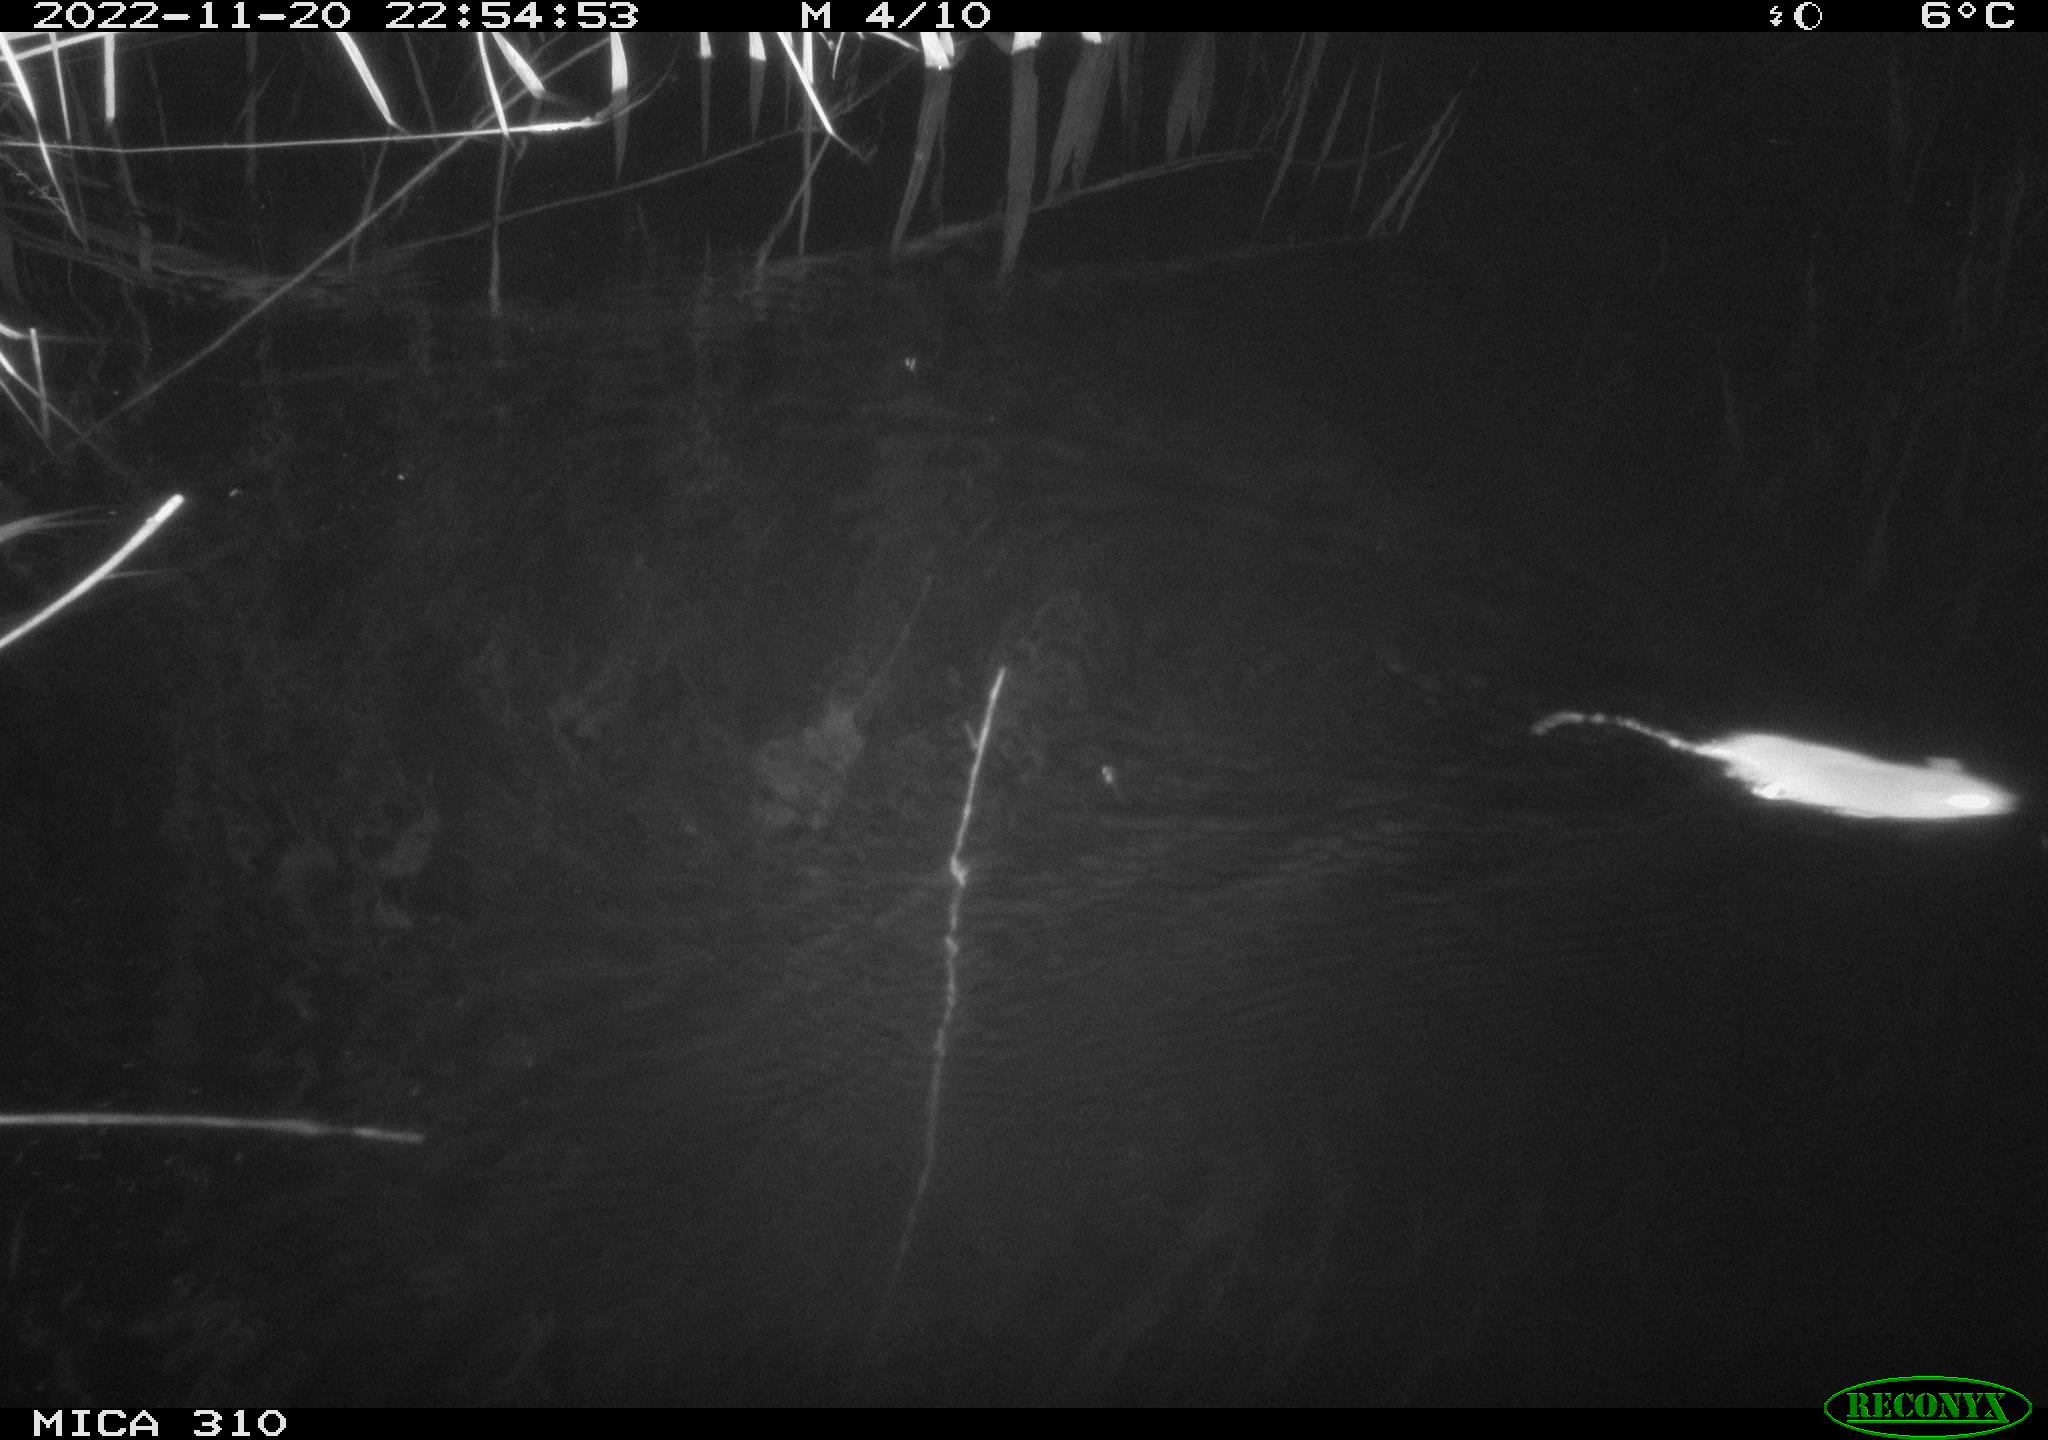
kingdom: Animalia
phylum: Chordata
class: Mammalia
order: Rodentia
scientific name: Rodentia
